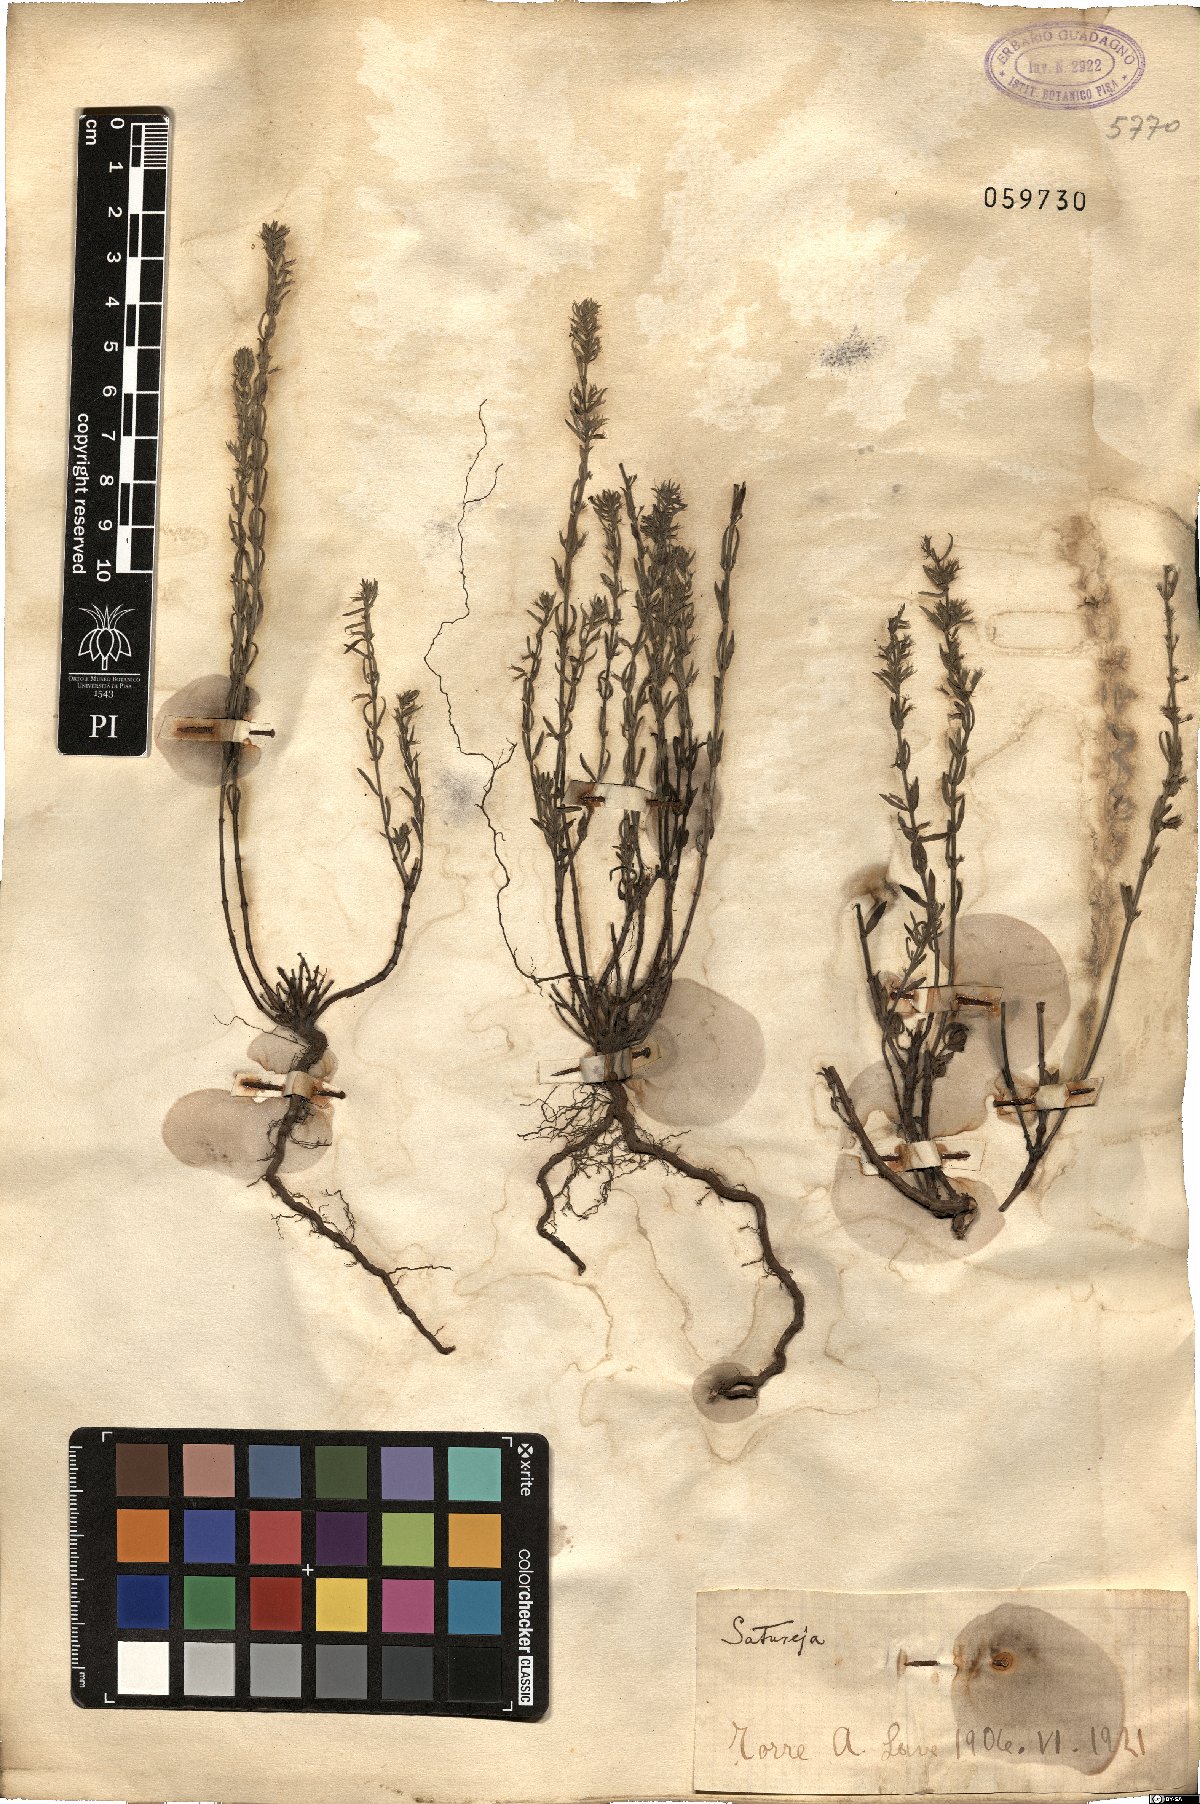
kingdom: Plantae
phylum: Tracheophyta
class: Magnoliopsida
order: Lamiales
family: Lamiaceae
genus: Satureja
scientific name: Satureja
